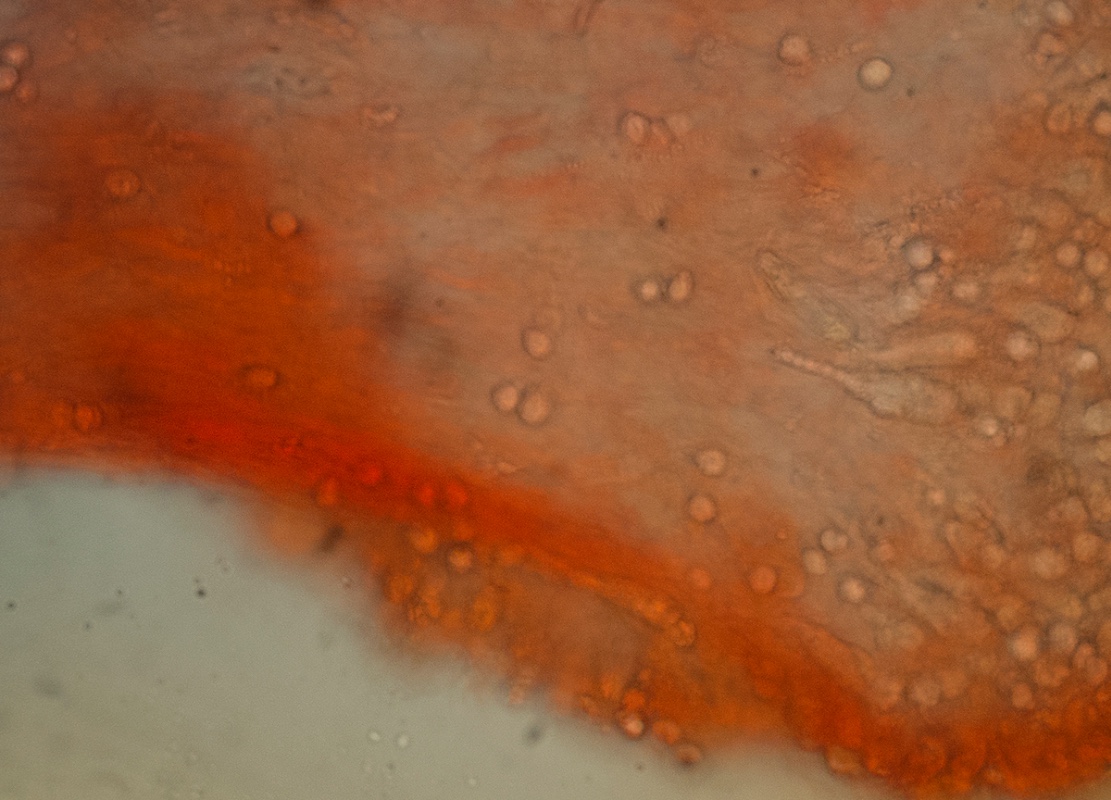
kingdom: Fungi
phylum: Basidiomycota
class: Agaricomycetes
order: Agaricales
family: Clavariaceae
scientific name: Clavariaceae
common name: køllesvampfamilien
